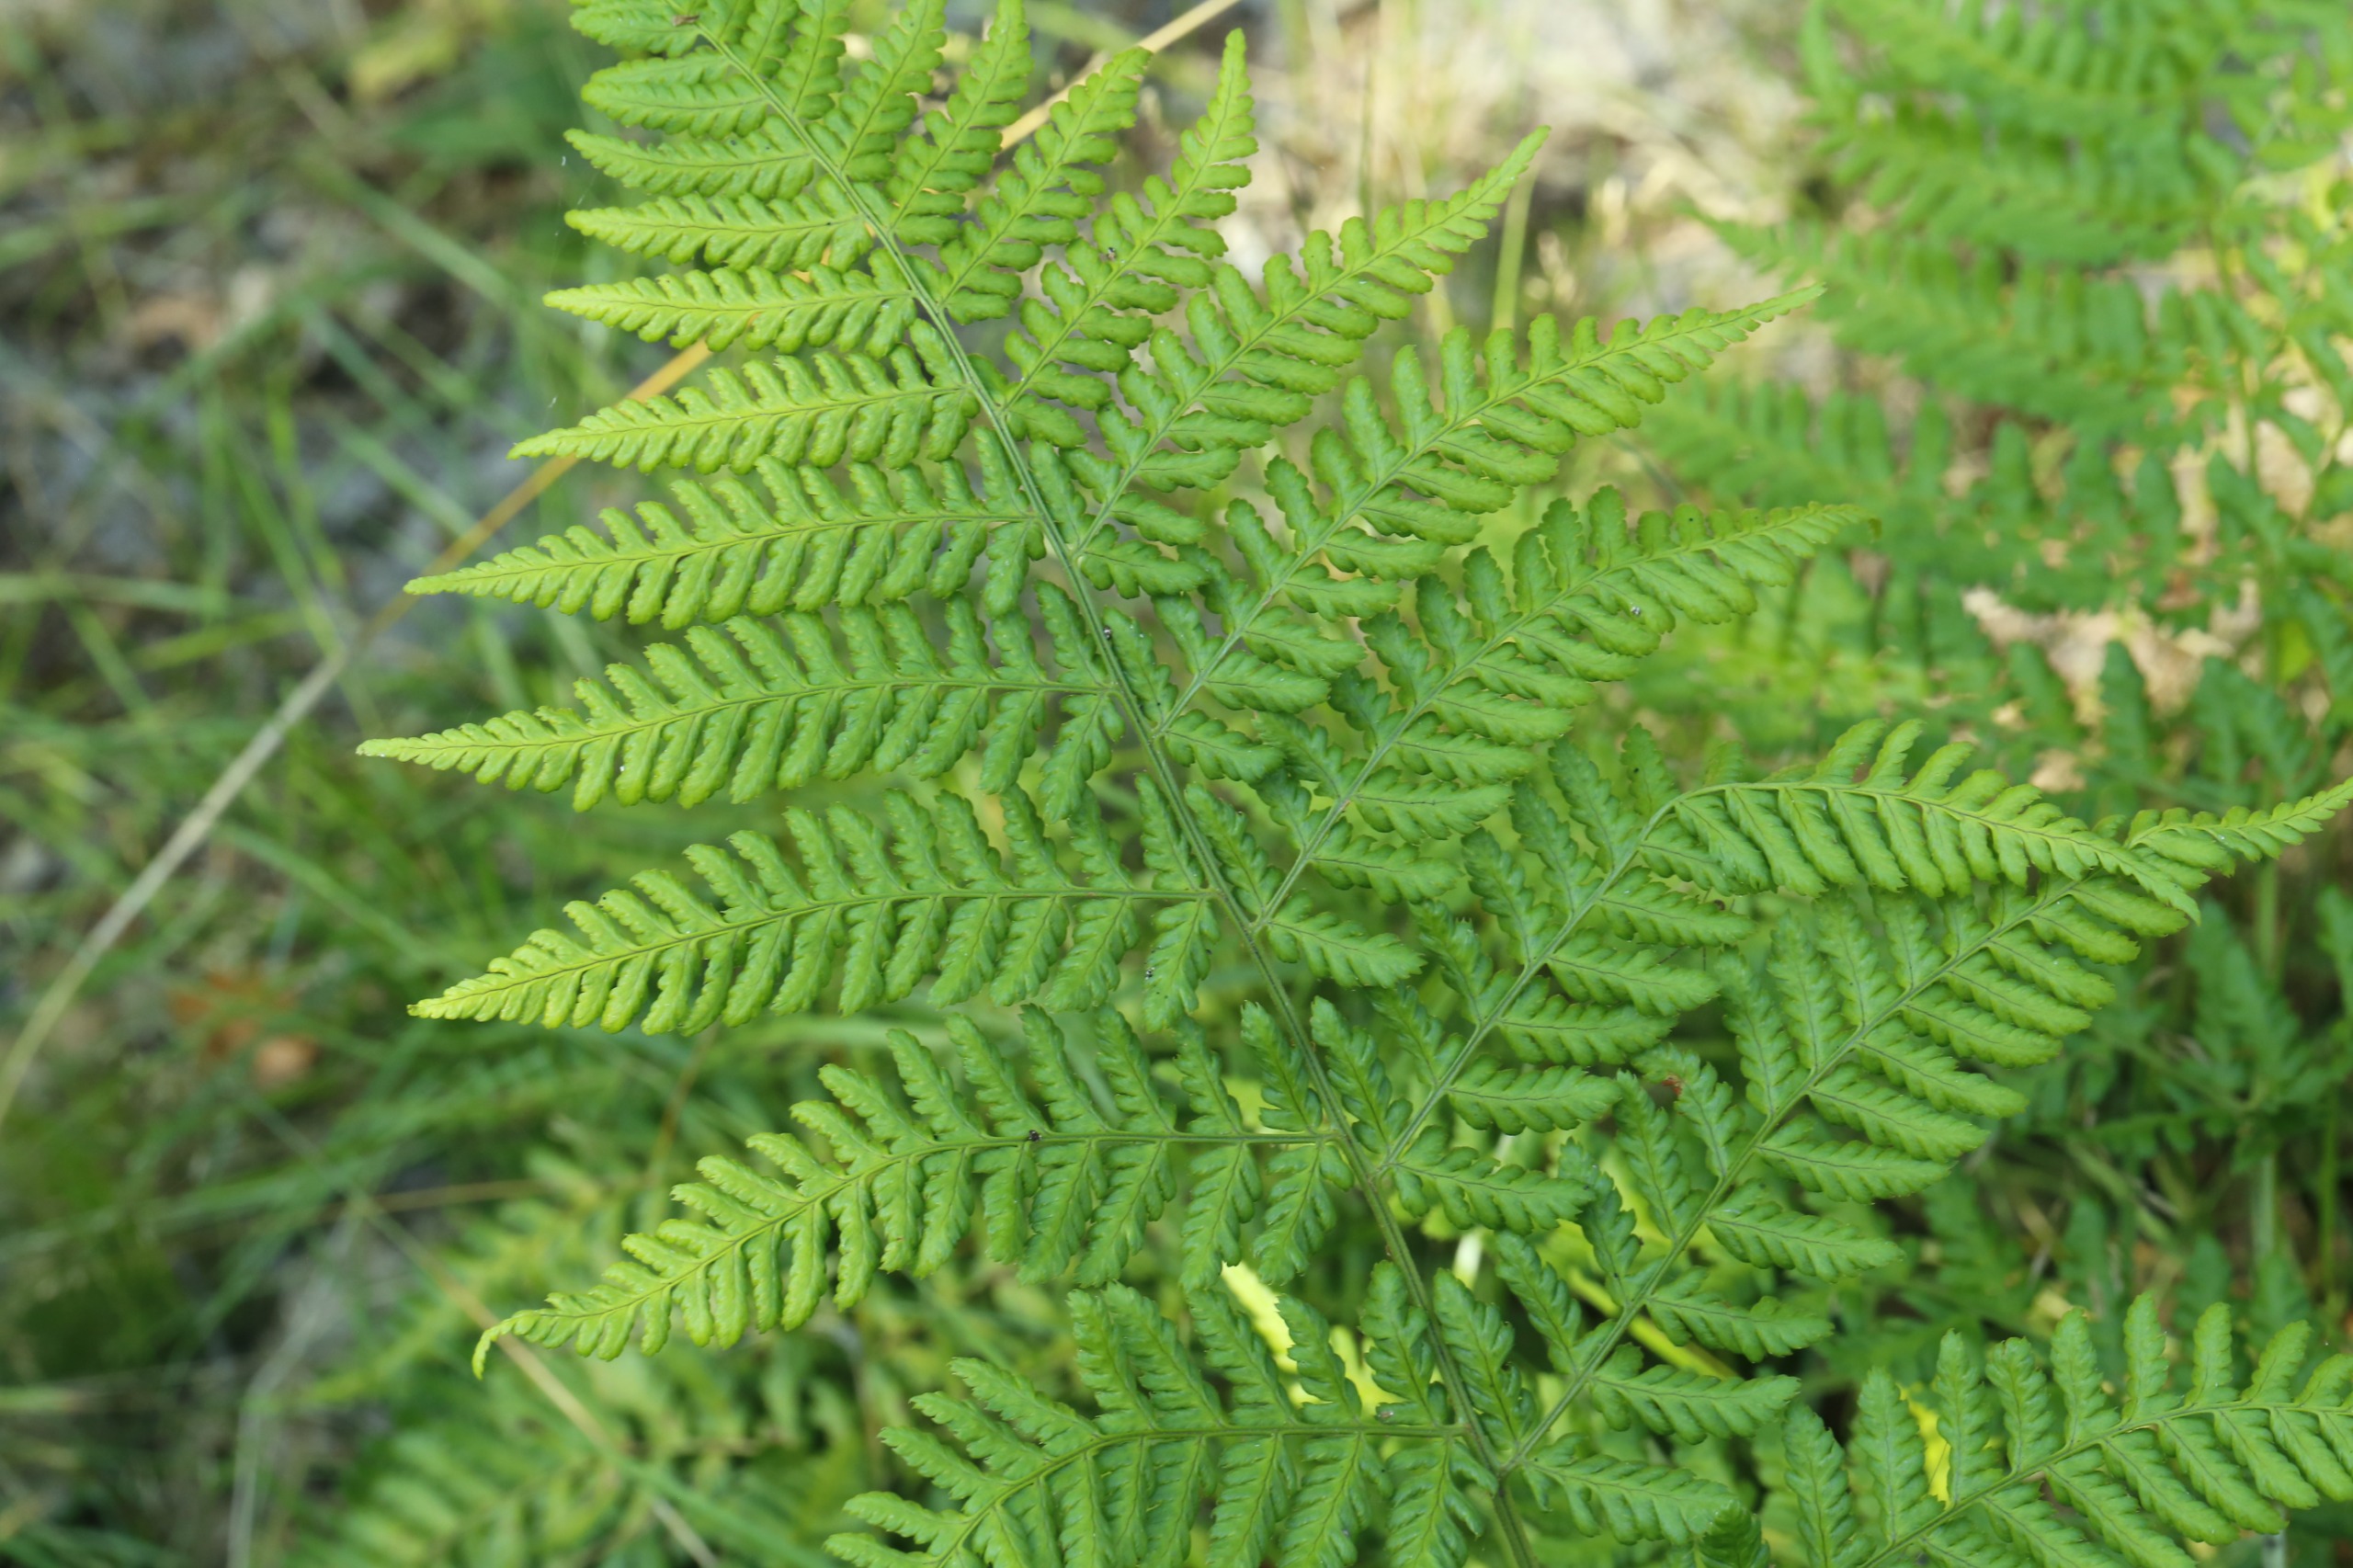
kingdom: Plantae
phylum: Tracheophyta
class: Polypodiopsida
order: Polypodiales
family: Dryopteridaceae
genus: Dryopteris
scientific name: Dryopteris dilatata
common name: Bredbladet mangeløv
